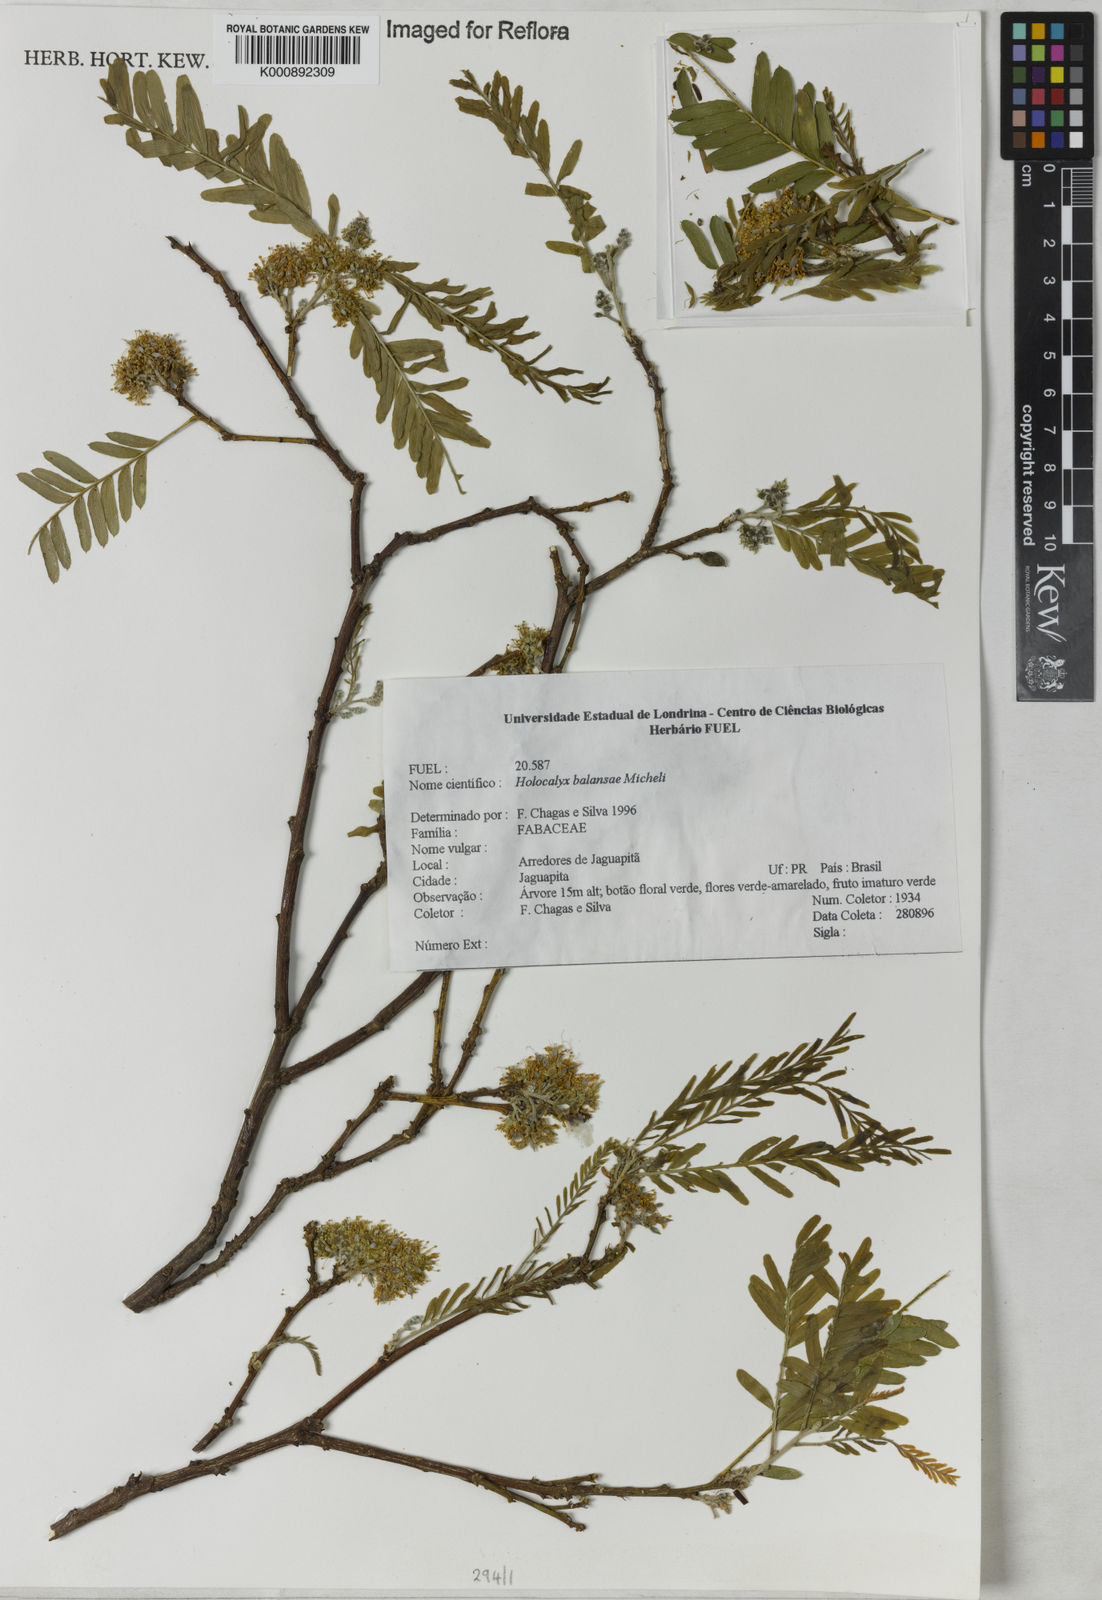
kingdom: Plantae
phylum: Tracheophyta
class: Magnoliopsida
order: Fabales
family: Fabaceae
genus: Holocalyx
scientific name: Holocalyx
